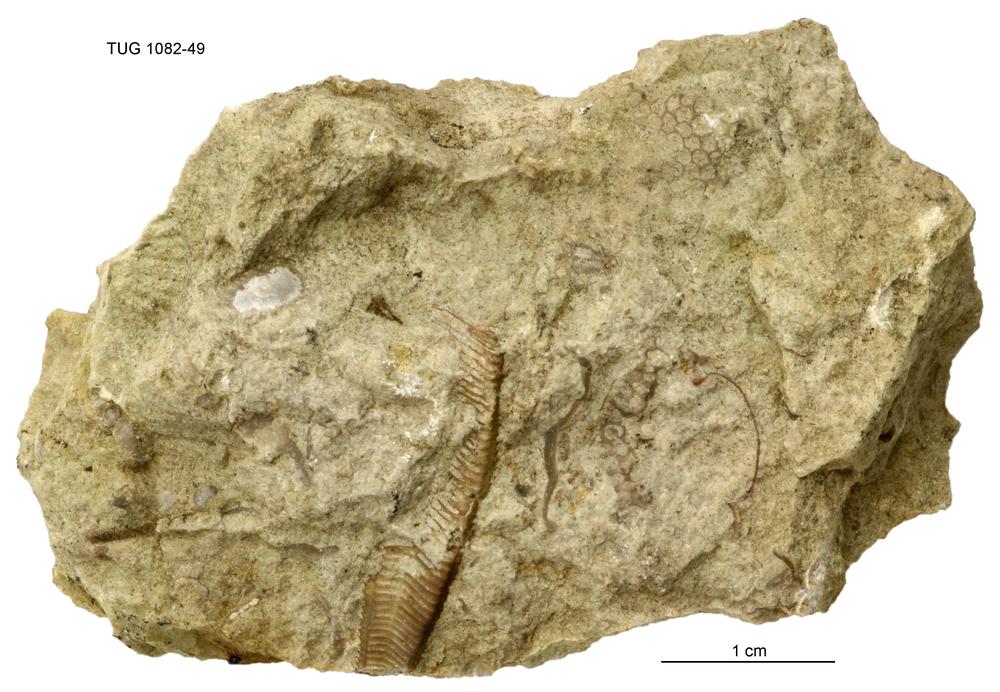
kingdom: Animalia
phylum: Cnidaria
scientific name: Cnidaria
